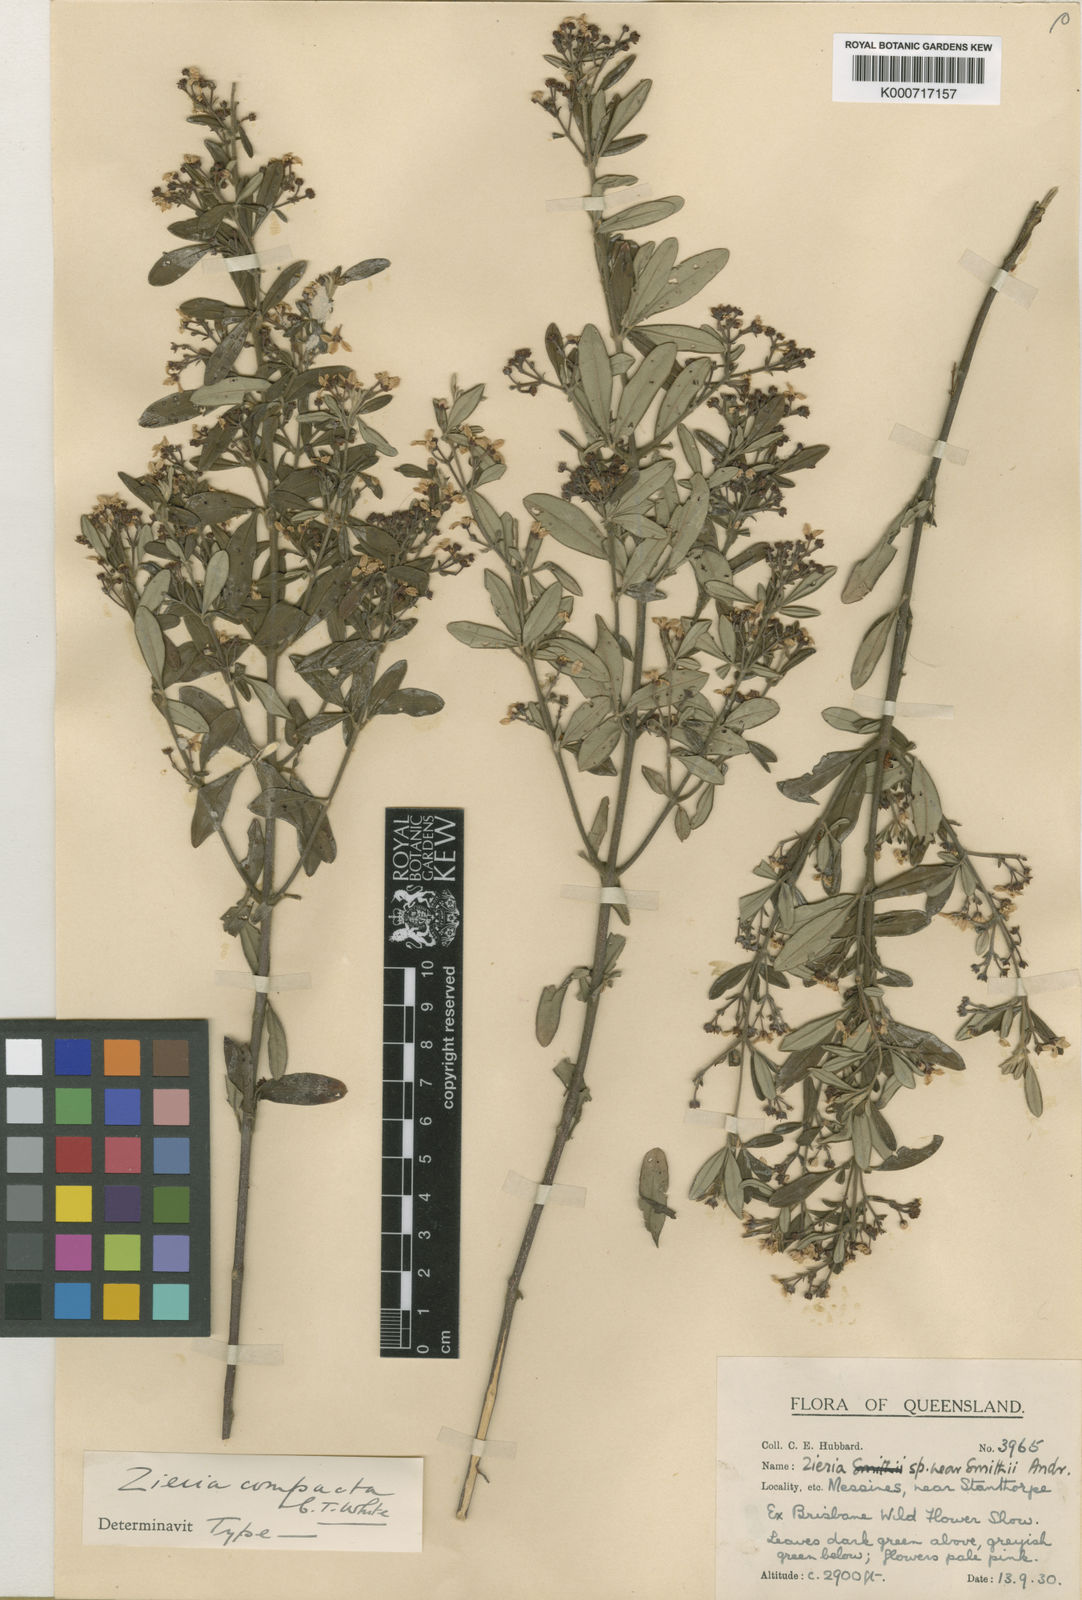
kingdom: Plantae
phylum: Tracheophyta
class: Magnoliopsida
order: Sapindales
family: Rutaceae
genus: Zieria
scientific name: Zieria compacta
